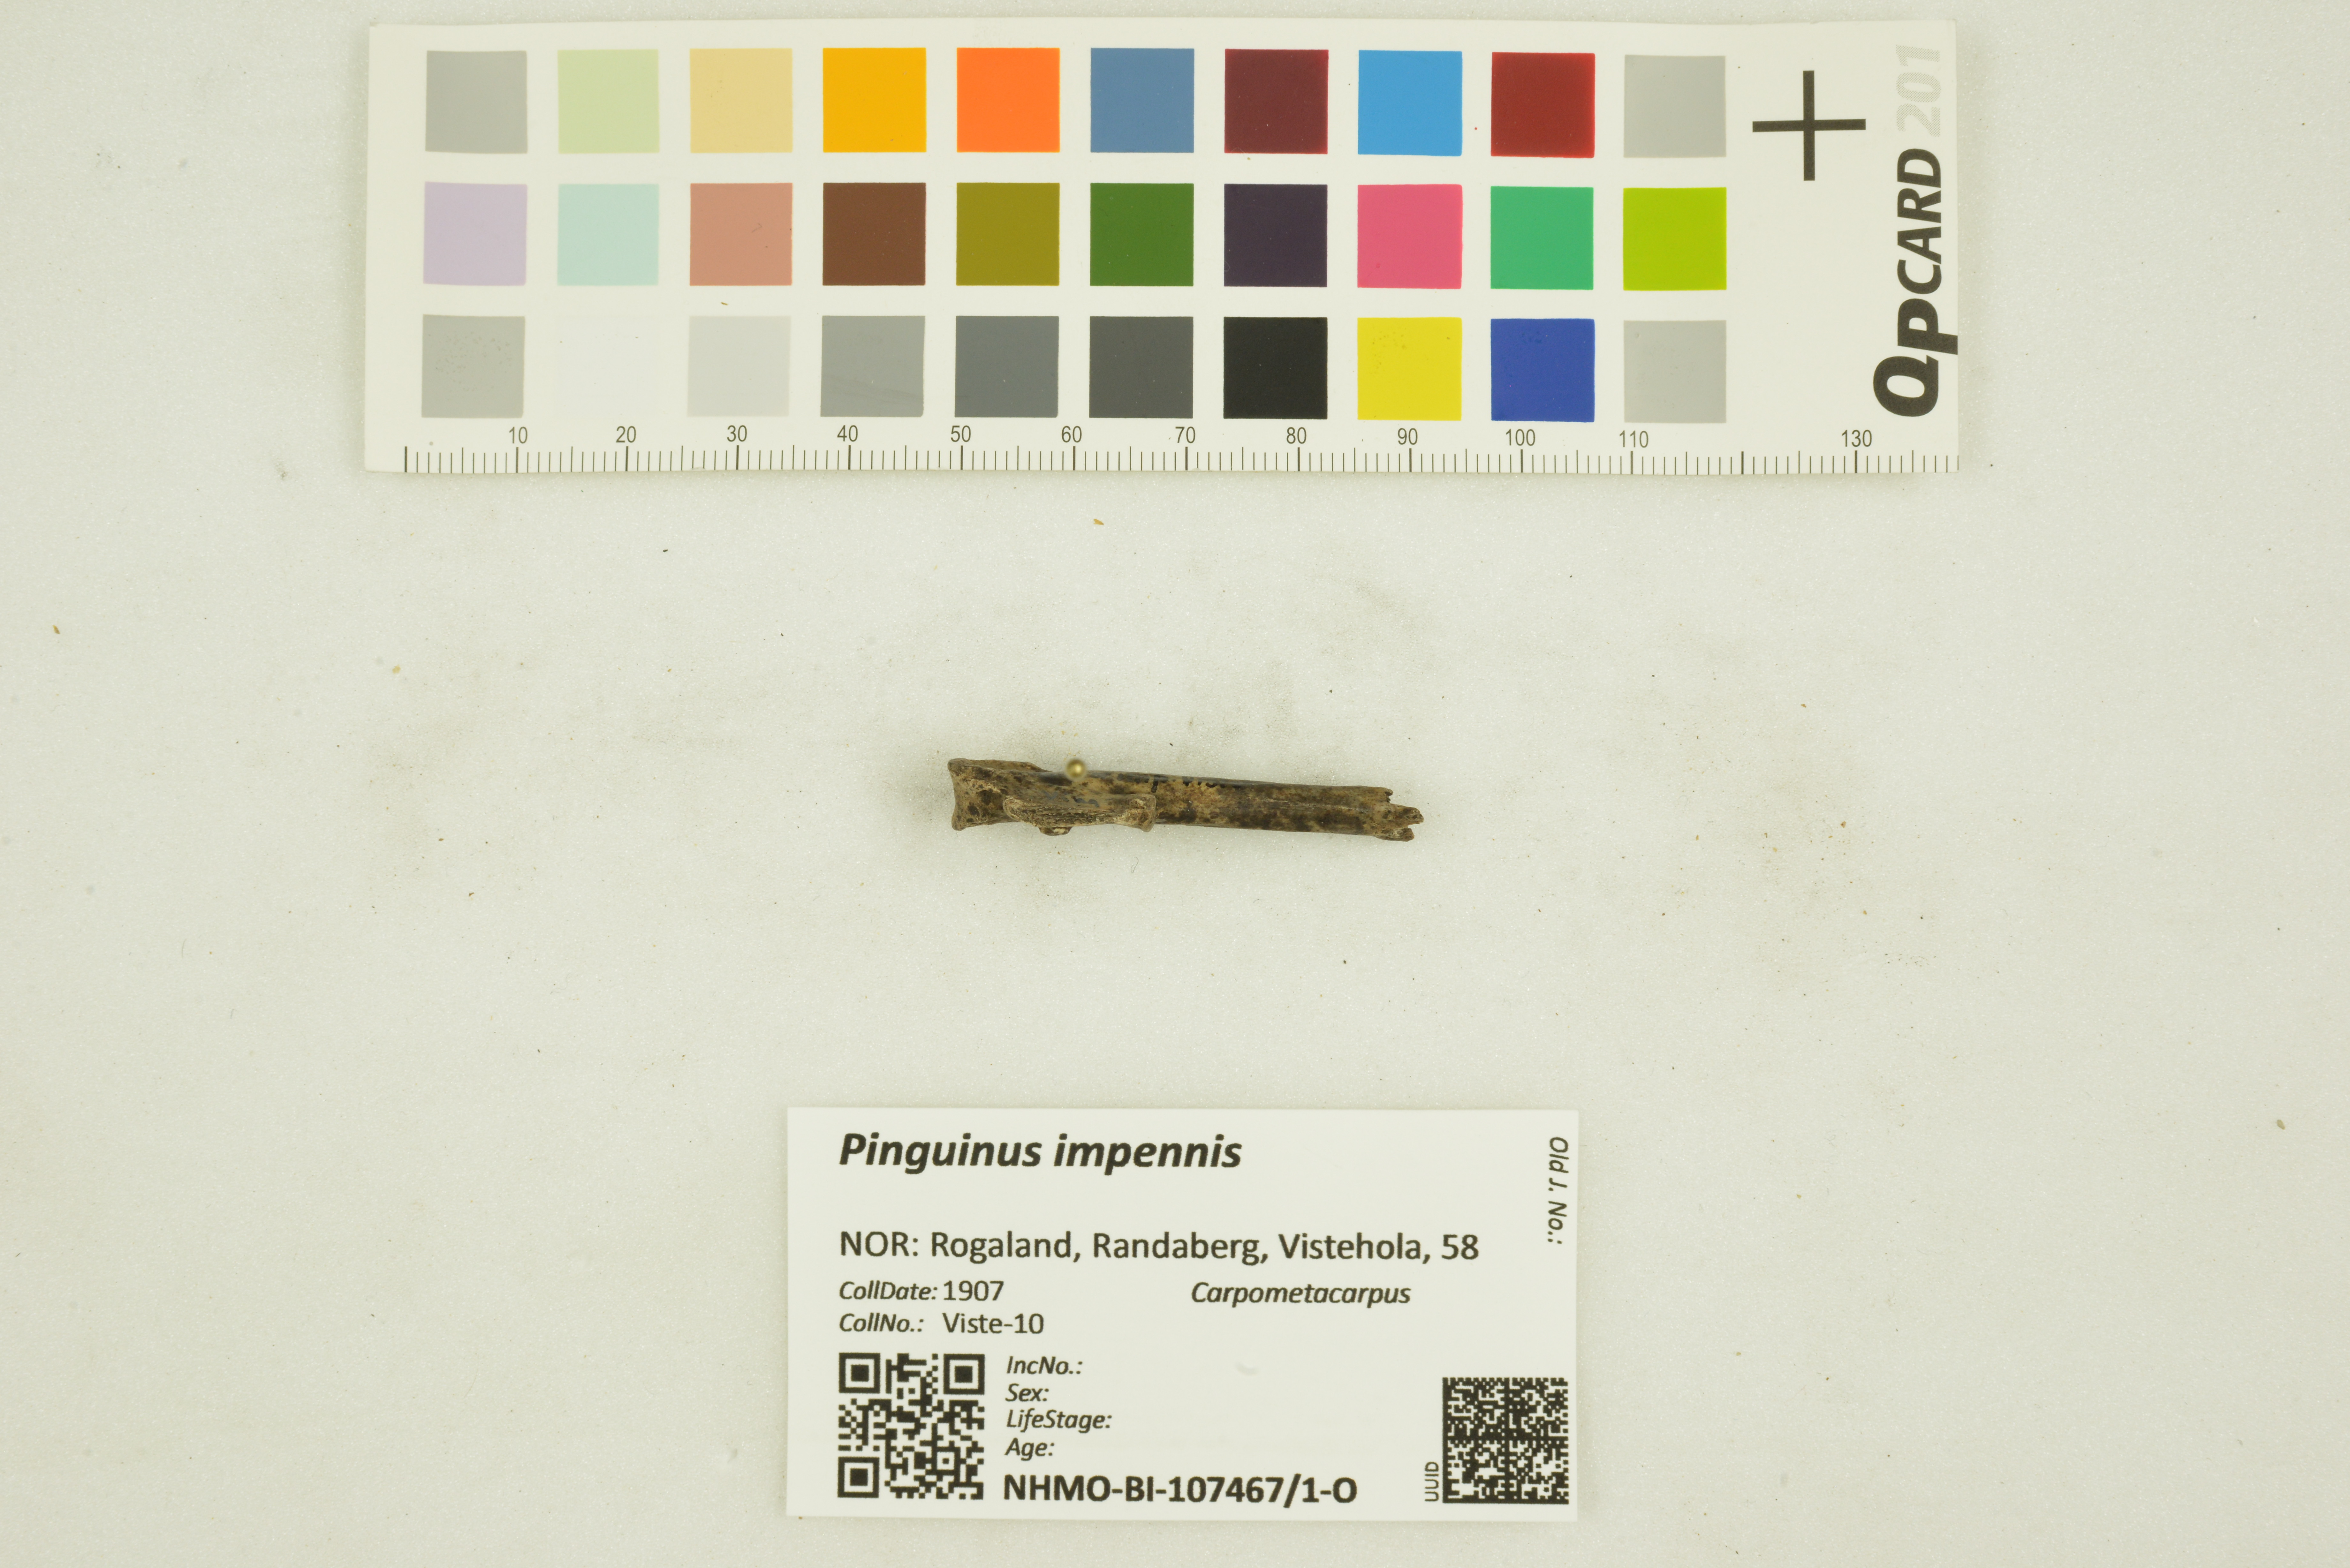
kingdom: Animalia
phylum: Chordata
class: Aves
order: Charadriiformes
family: Alcidae
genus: Pinguinus
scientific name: Pinguinus impennis
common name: Great auk
